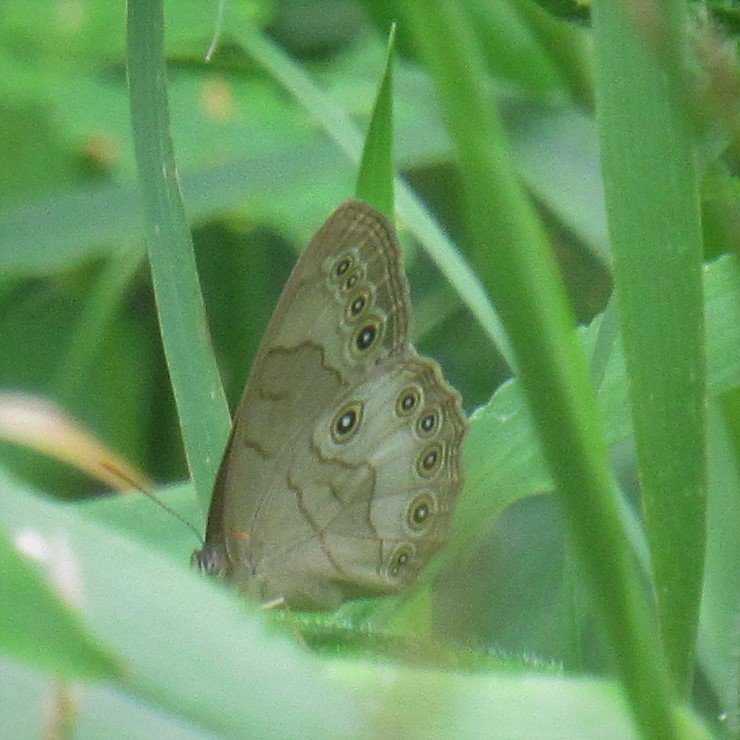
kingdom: Animalia
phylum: Arthropoda
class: Insecta
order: Lepidoptera
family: Nymphalidae
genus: Lethe
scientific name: Lethe eurydice
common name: Appalachian Eyed Brown
